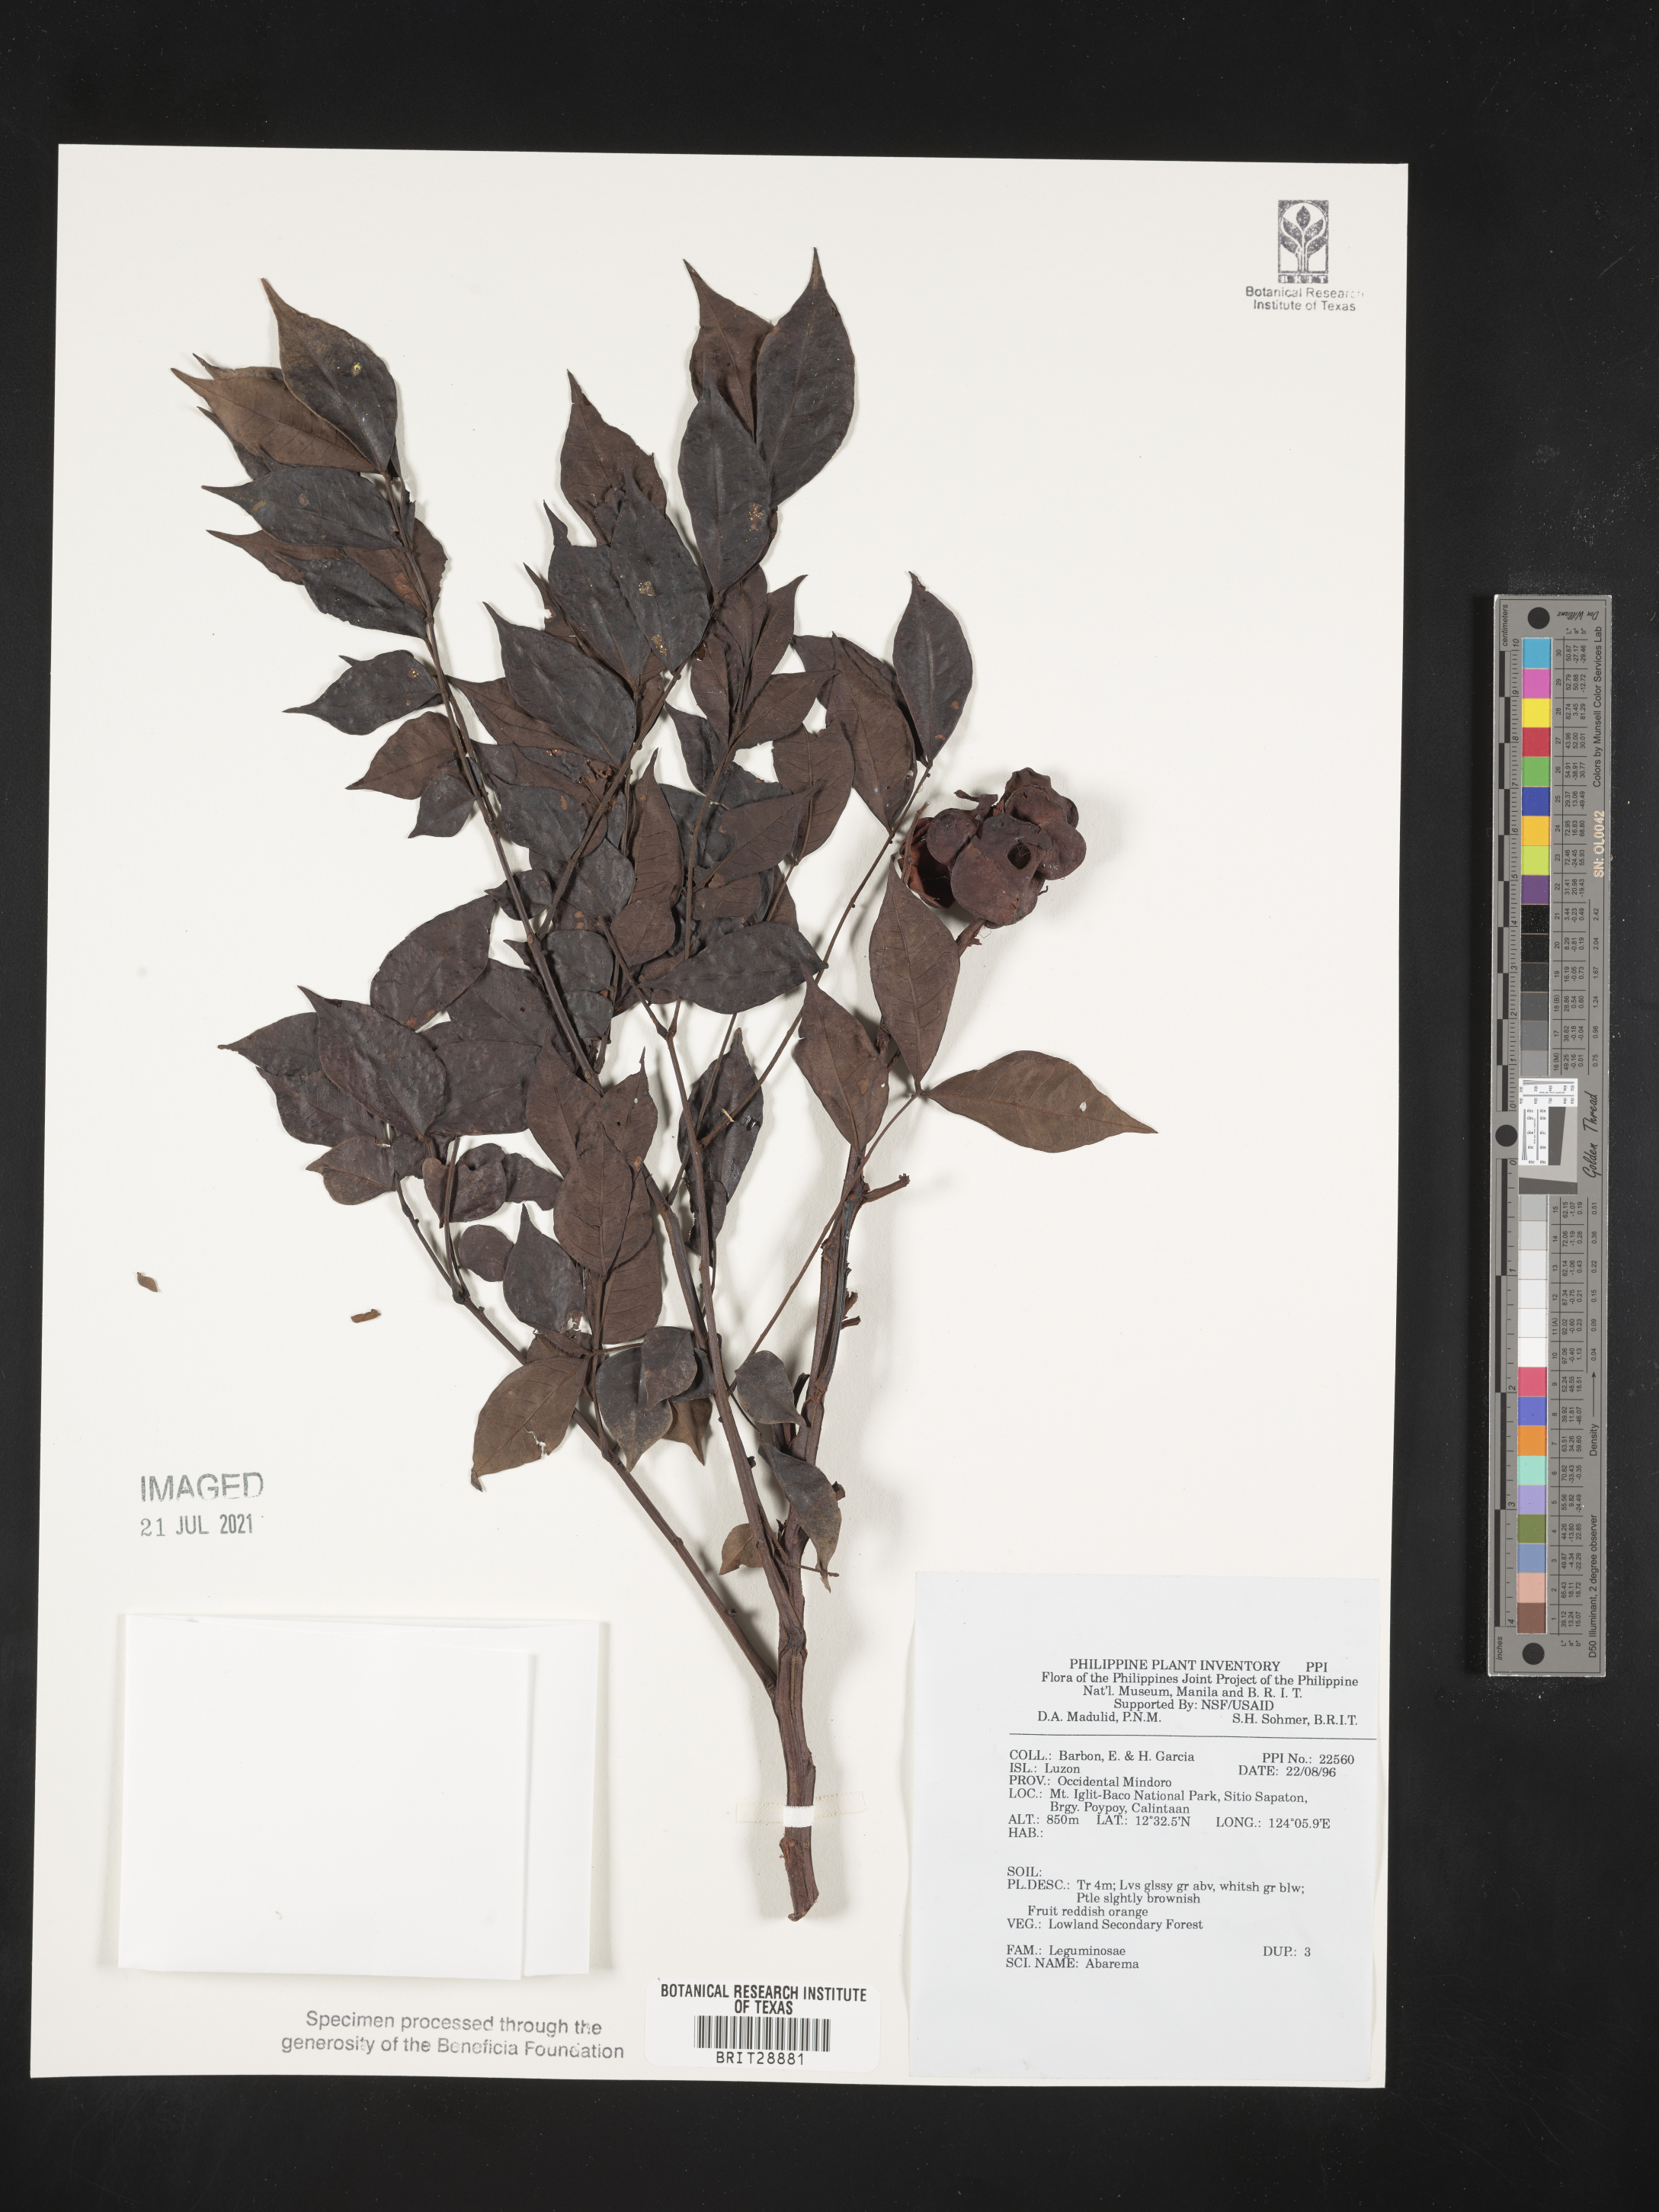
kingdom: Plantae
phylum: Tracheophyta
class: Magnoliopsida
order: Fabales
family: Fabaceae
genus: Abarema
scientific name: Abarema
